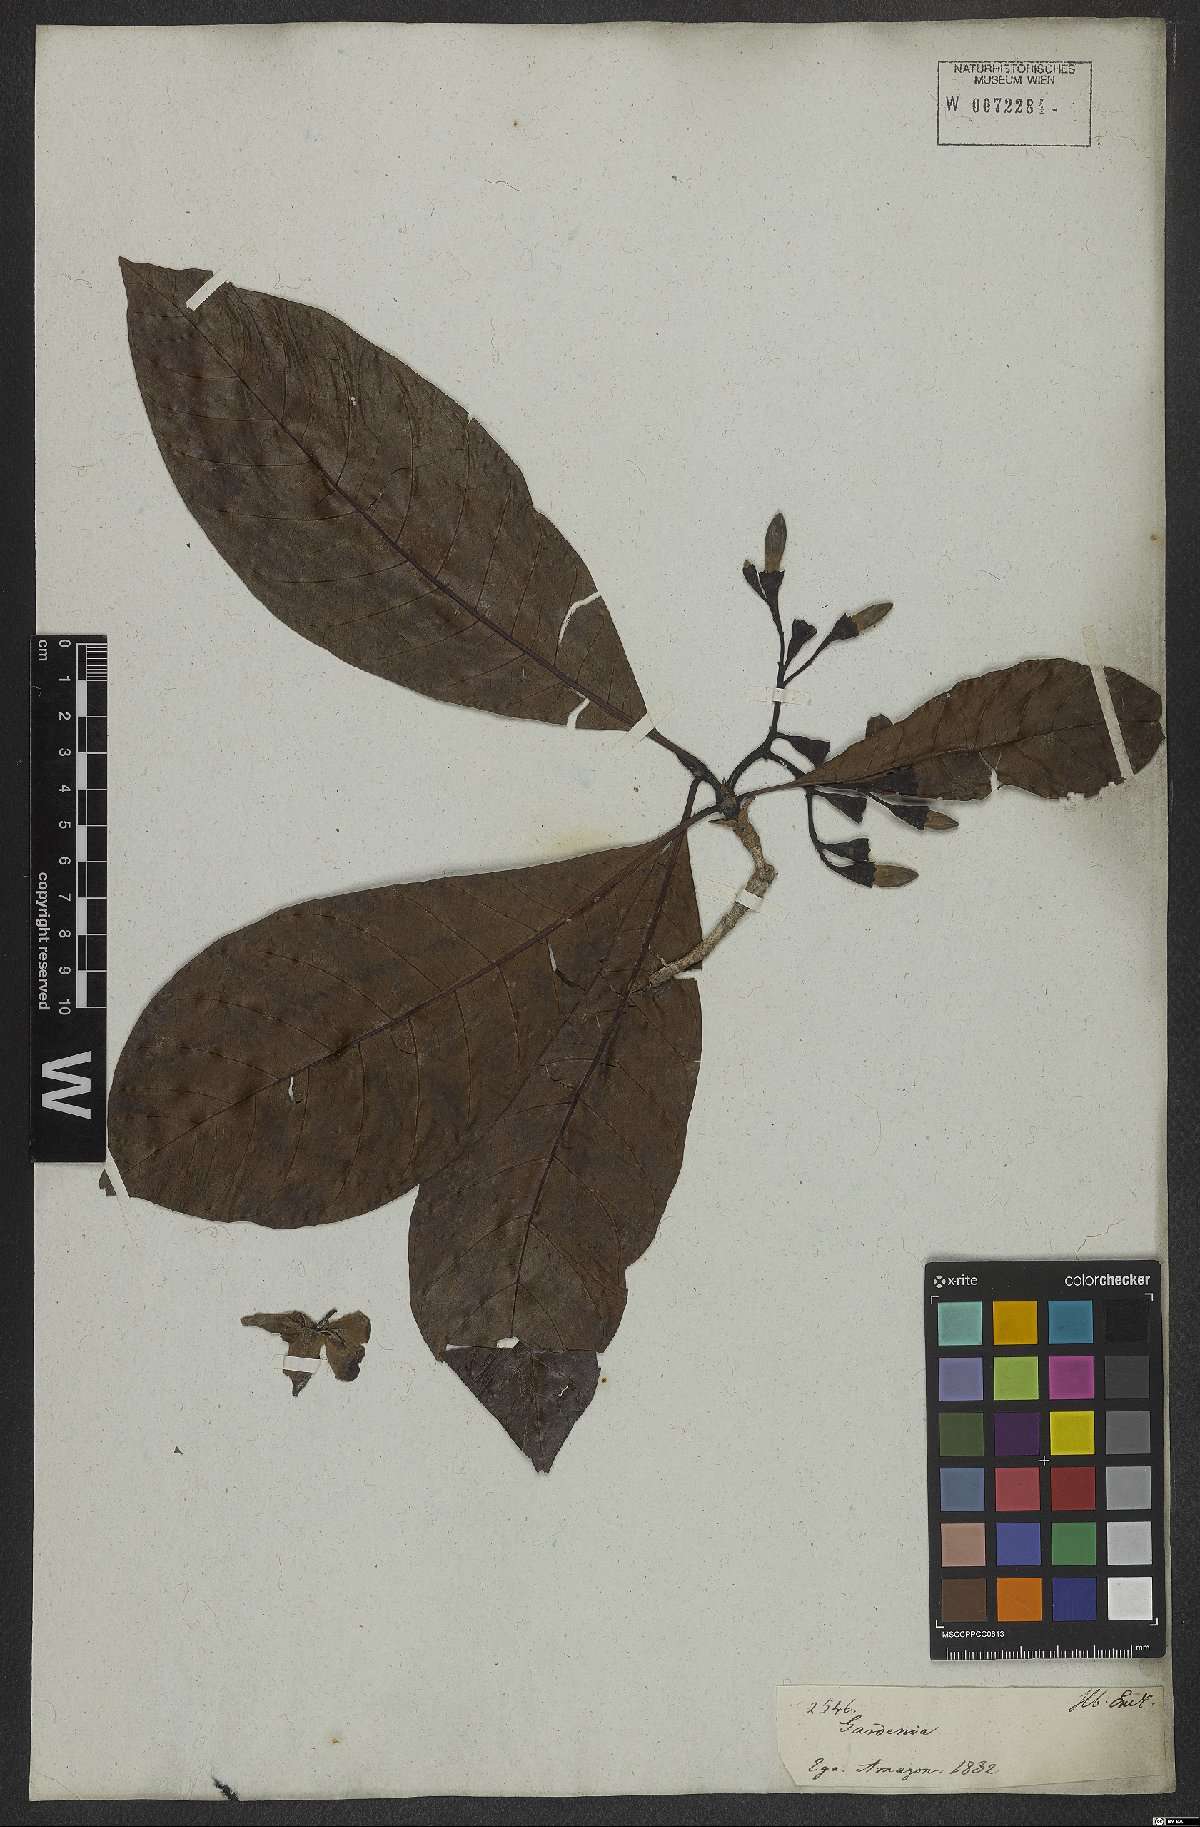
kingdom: Plantae
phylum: Tracheophyta
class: Magnoliopsida
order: Gentianales
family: Rubiaceae
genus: Gardenia
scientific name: Gardenia
